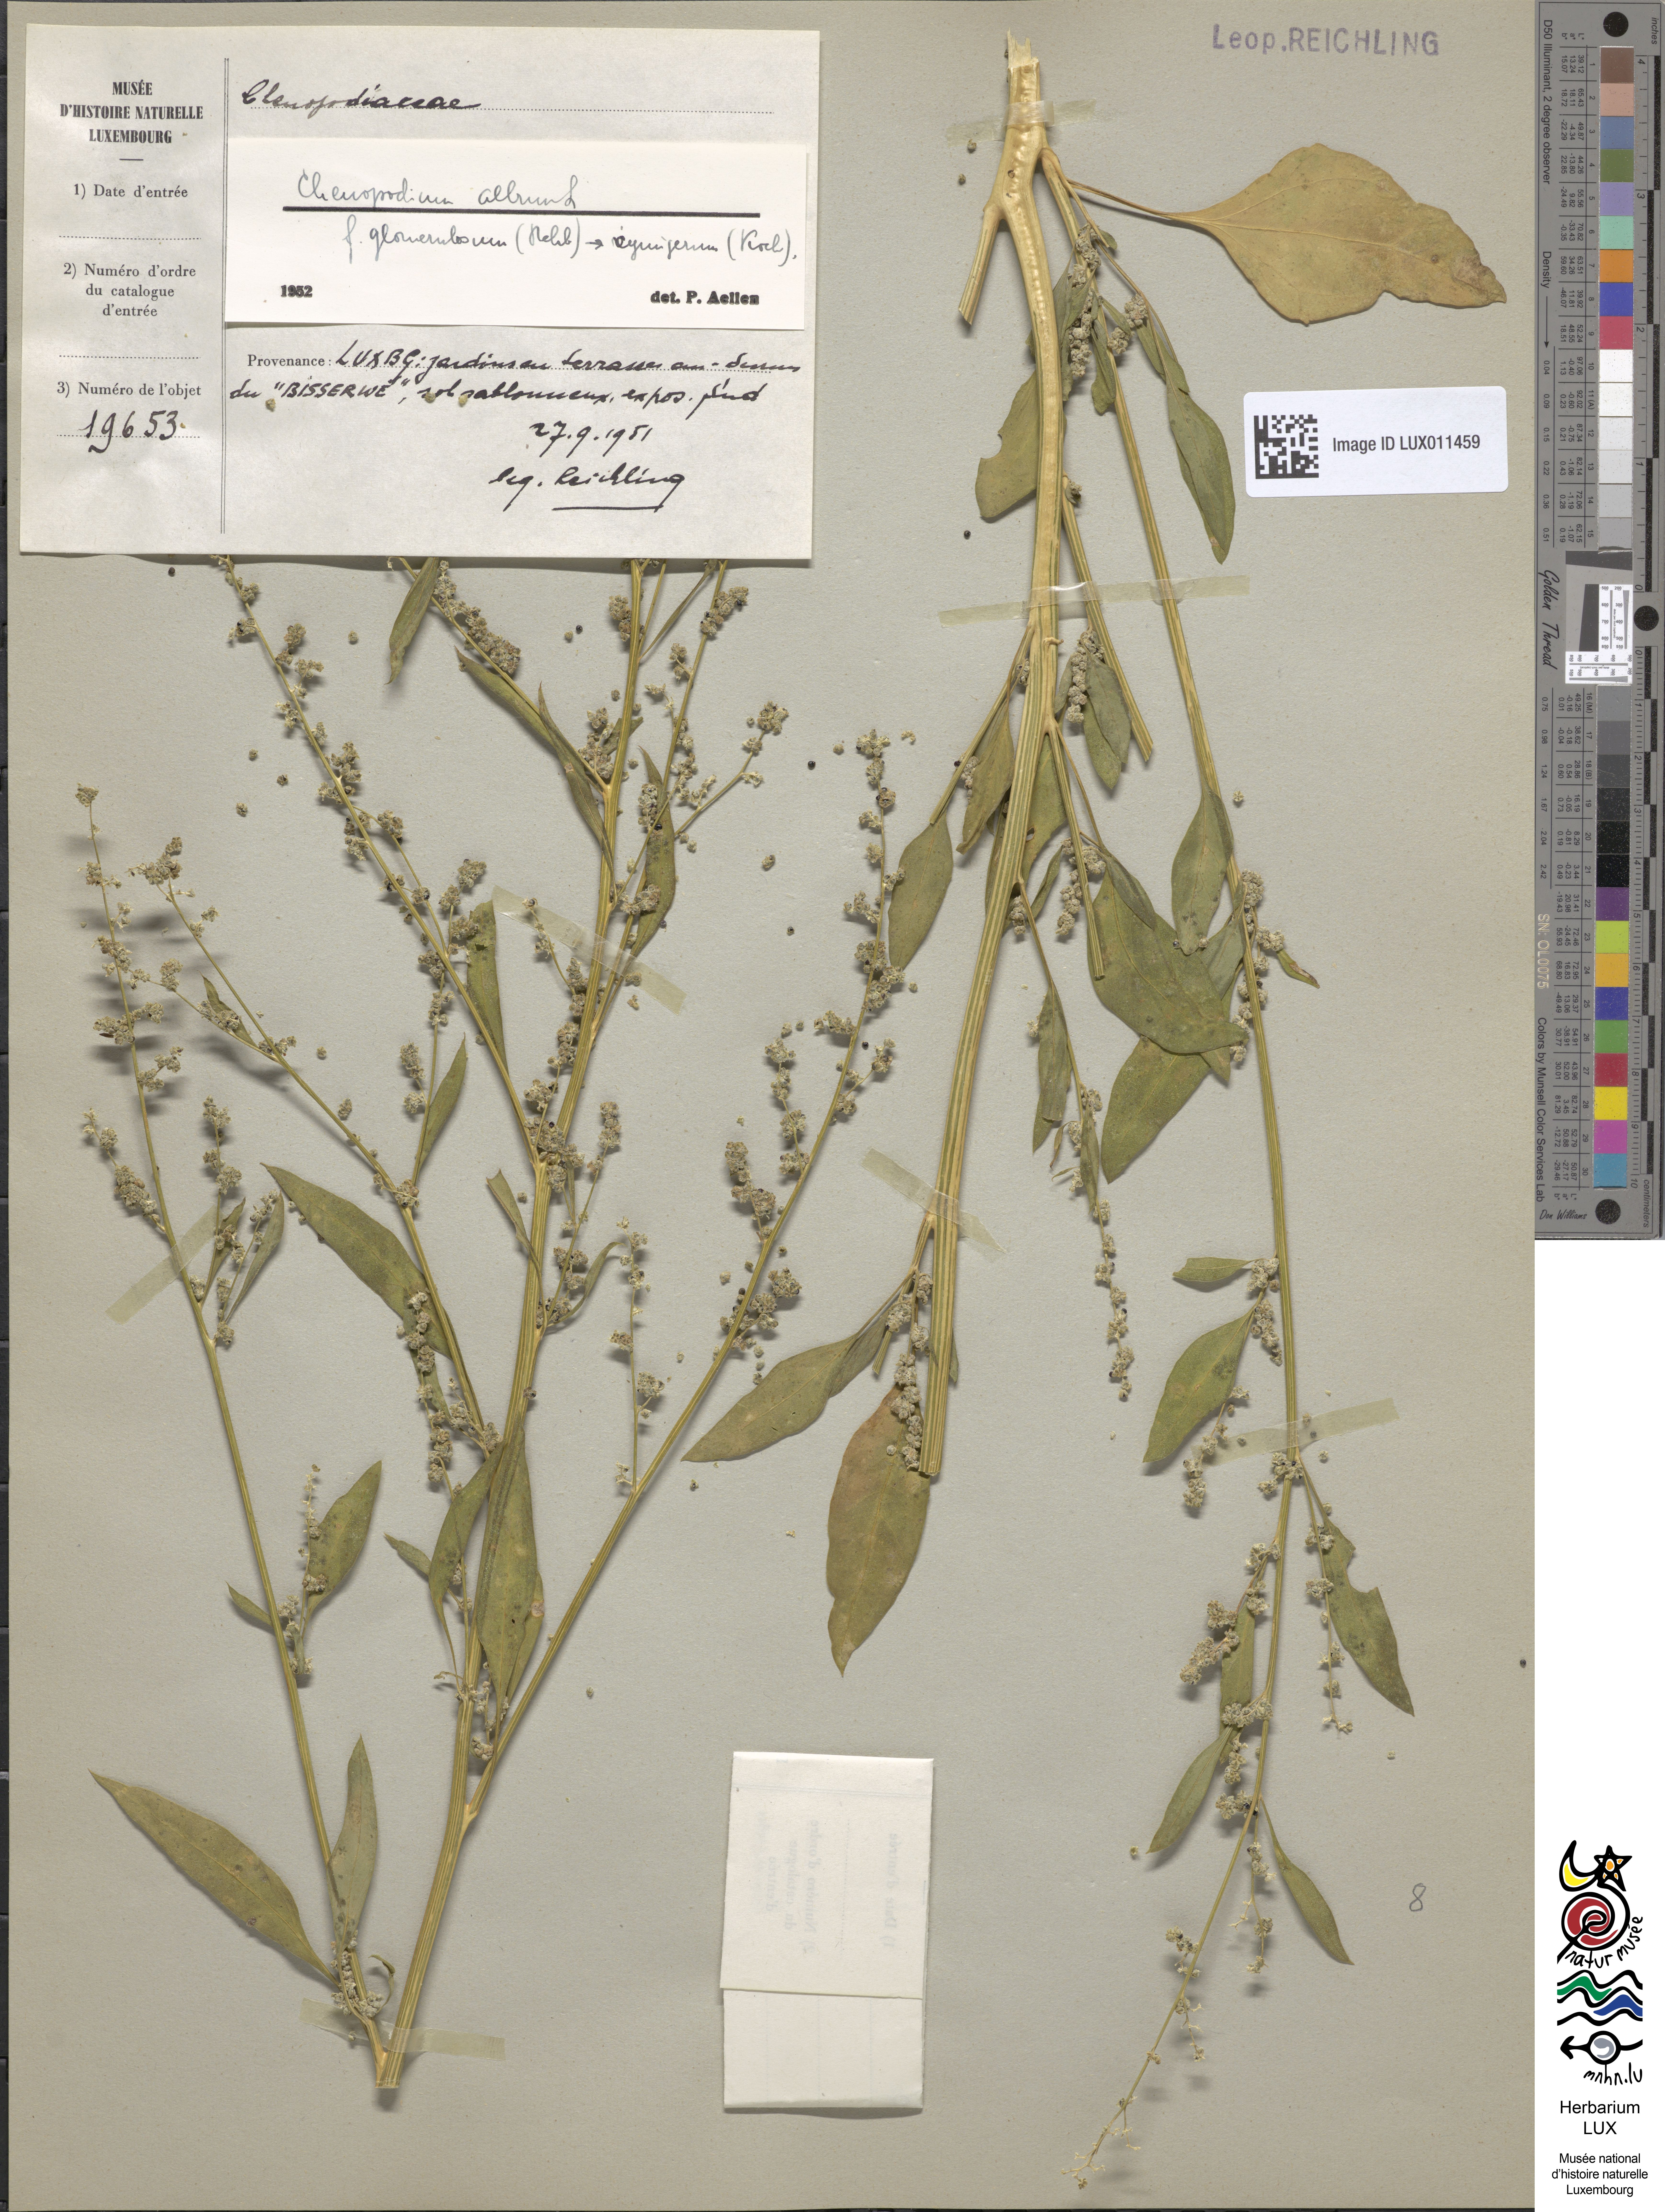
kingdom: Plantae
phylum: Tracheophyta
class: Magnoliopsida
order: Caryophyllales
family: Amaranthaceae
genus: Chenopodium
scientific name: Chenopodium album
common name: Fat-hen
